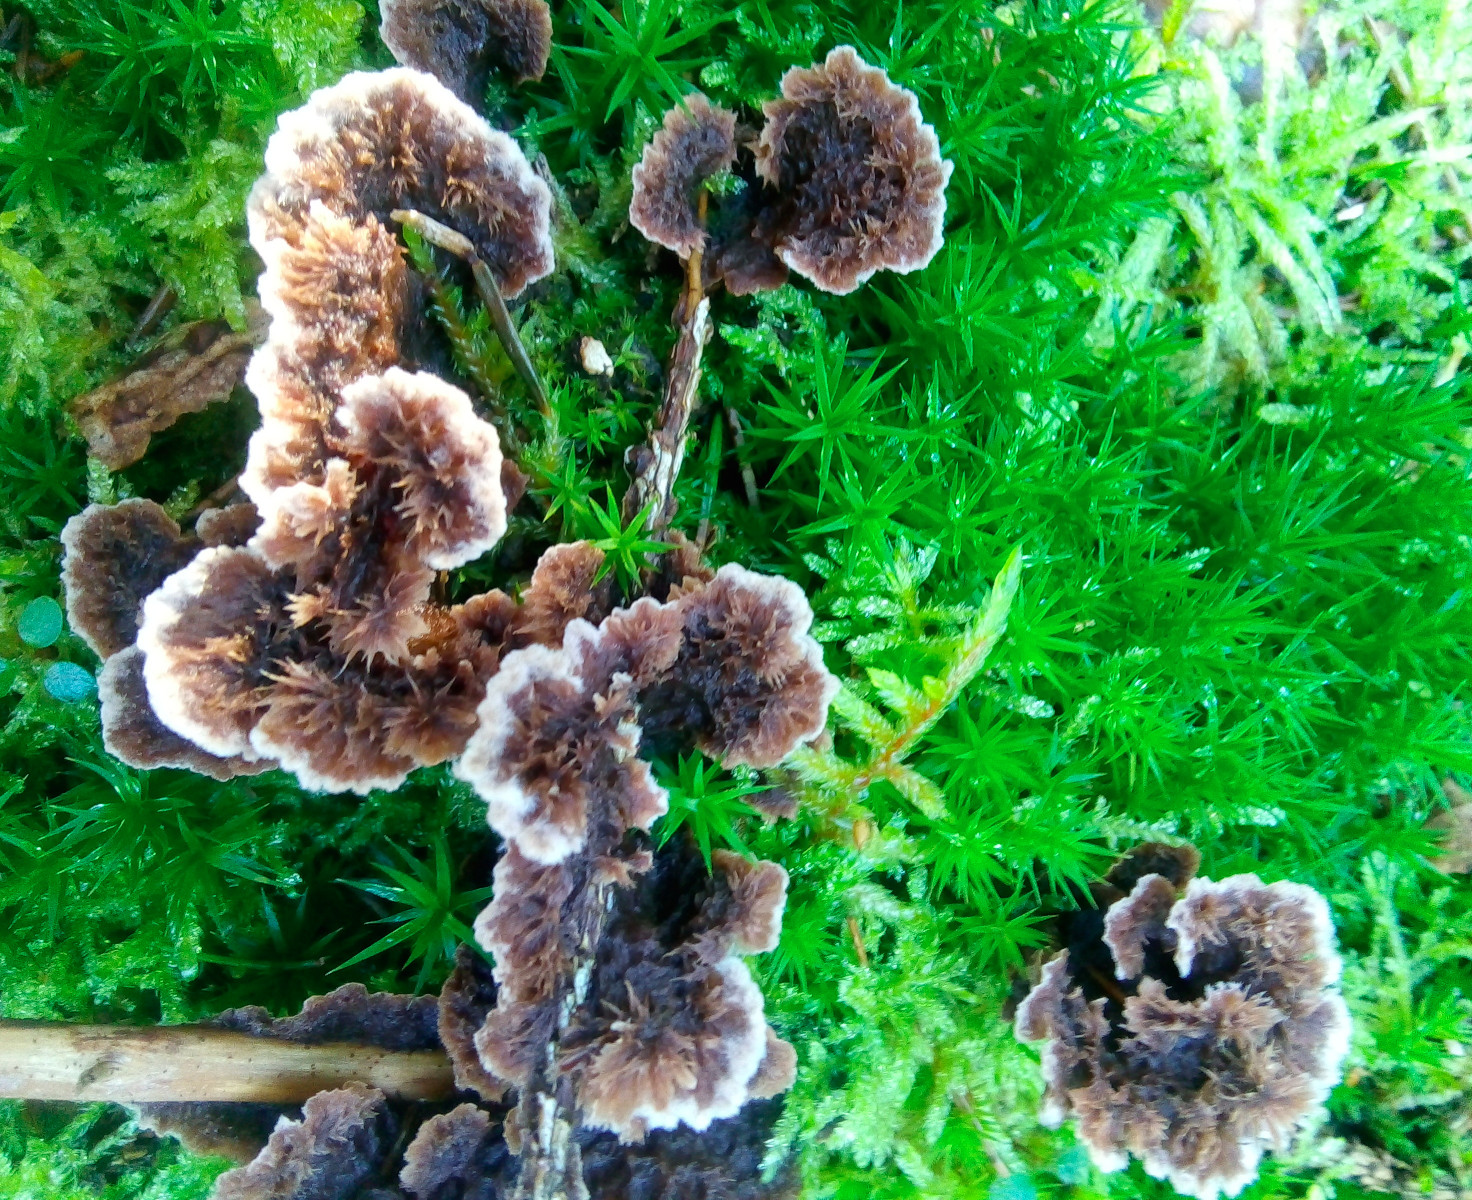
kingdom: Fungi
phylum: Basidiomycota
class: Agaricomycetes
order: Thelephorales
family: Thelephoraceae
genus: Thelephora
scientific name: Thelephora terrestris
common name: fliget frynsesvamp
